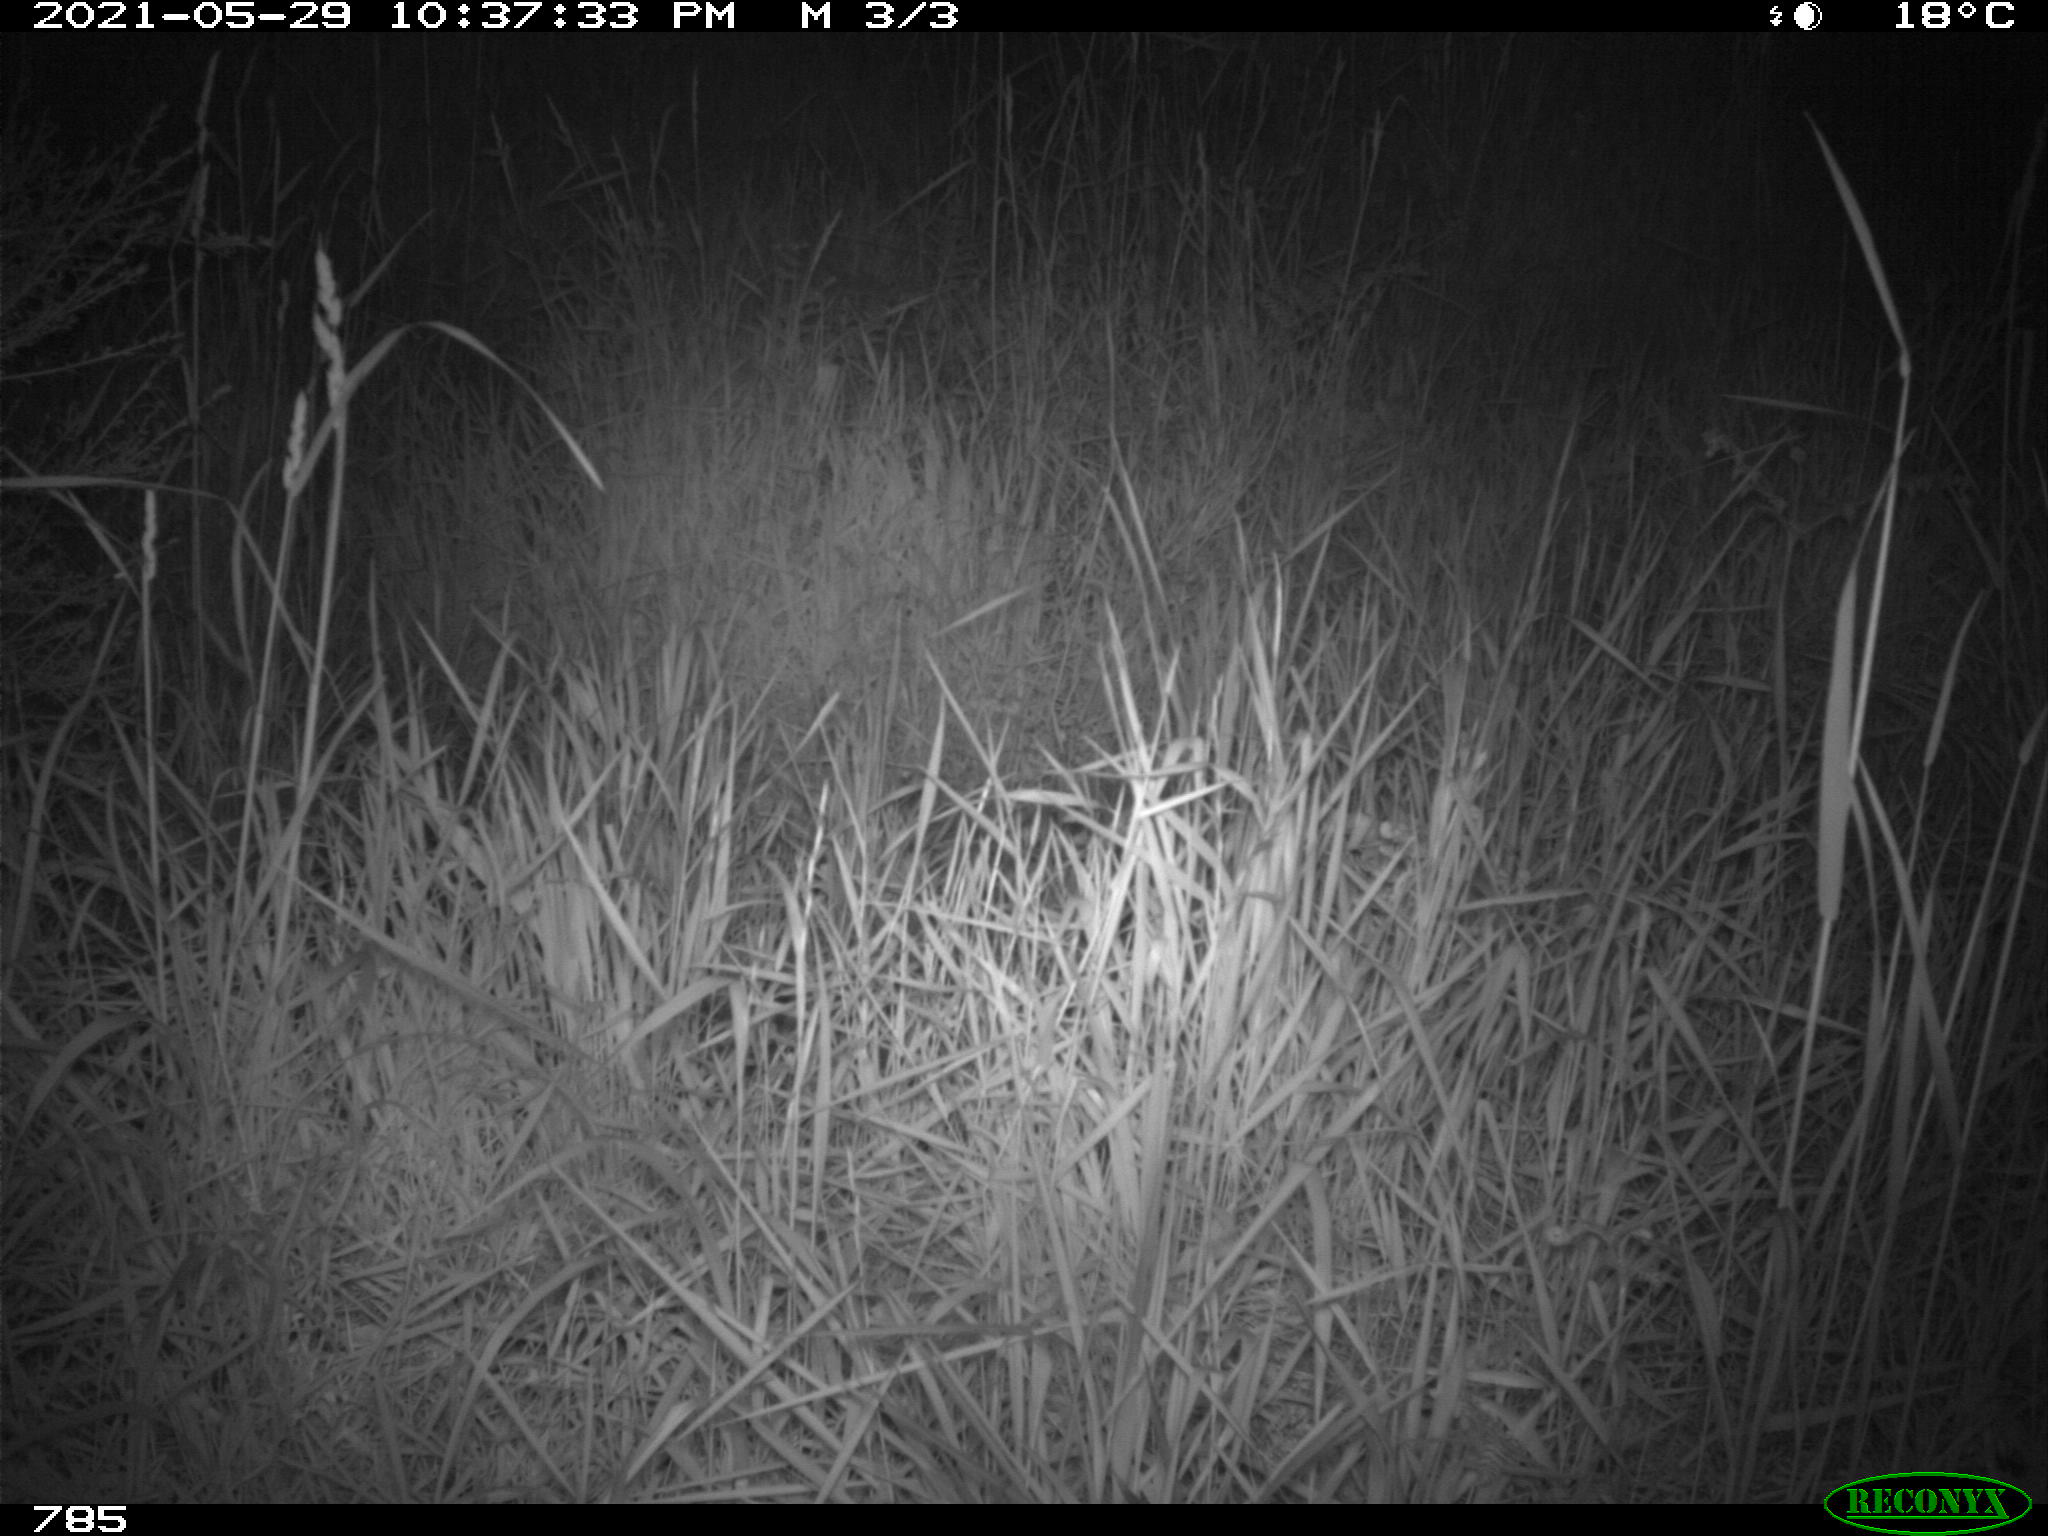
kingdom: Animalia
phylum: Chordata
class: Mammalia
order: Artiodactyla
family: Cervidae
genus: Capreolus
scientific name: Capreolus capreolus
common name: Western roe deer
